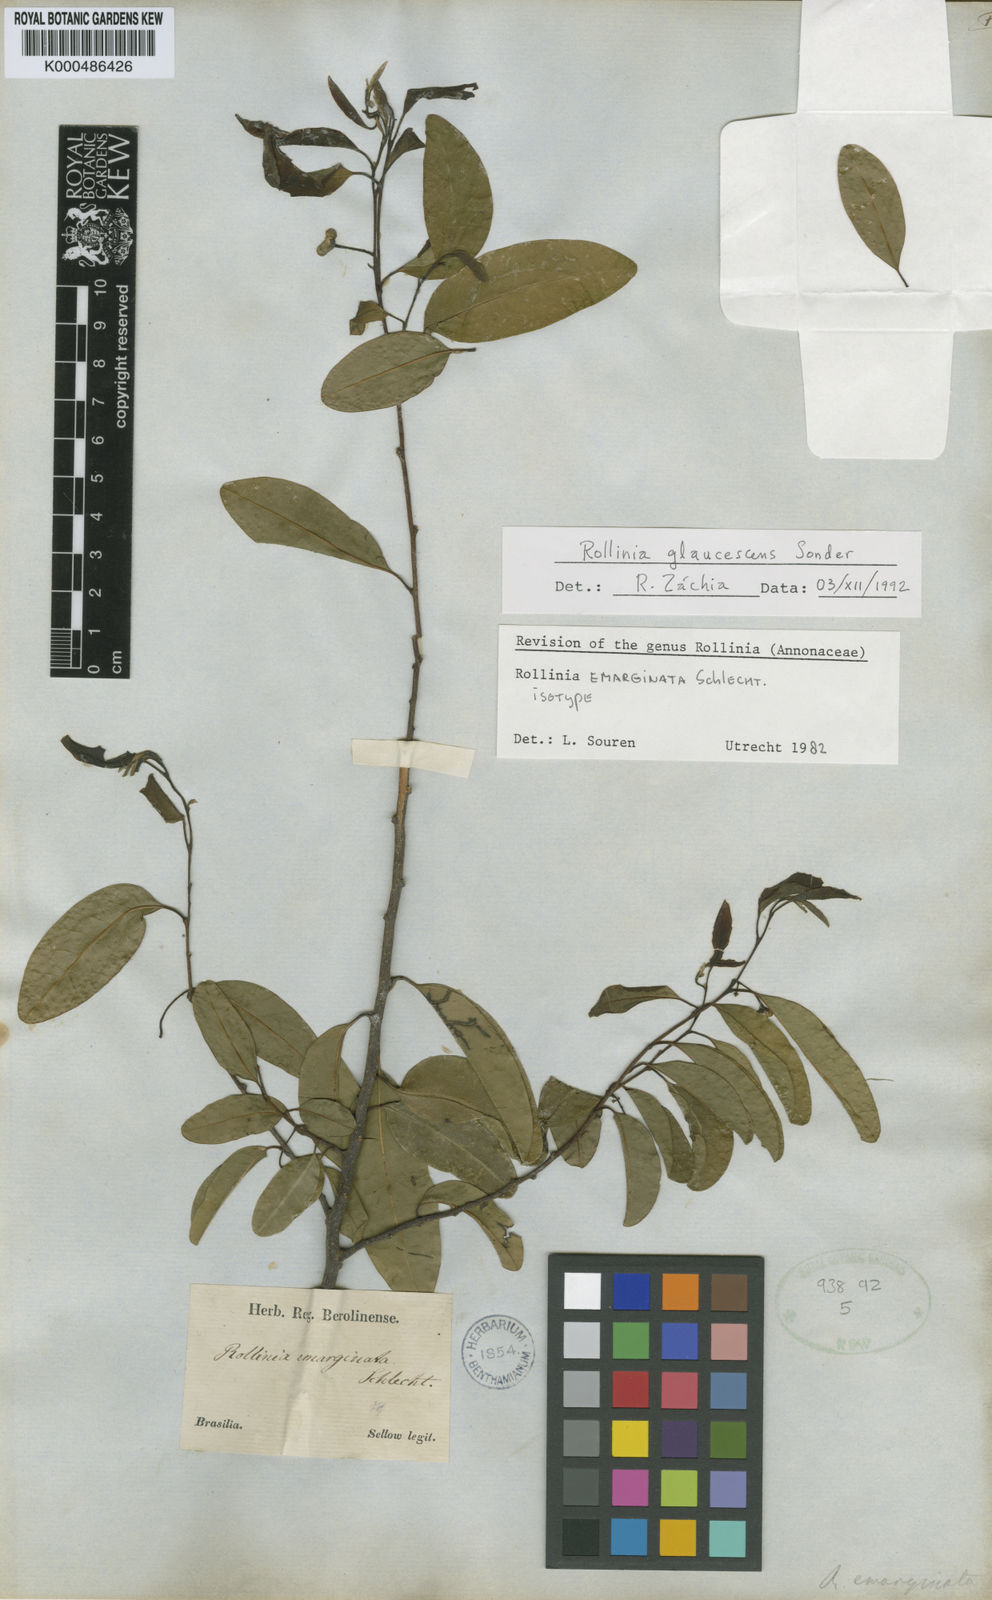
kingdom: Plantae
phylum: Tracheophyta
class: Magnoliopsida
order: Magnoliales
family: Annonaceae
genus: Annona
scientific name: Annona emarginata
